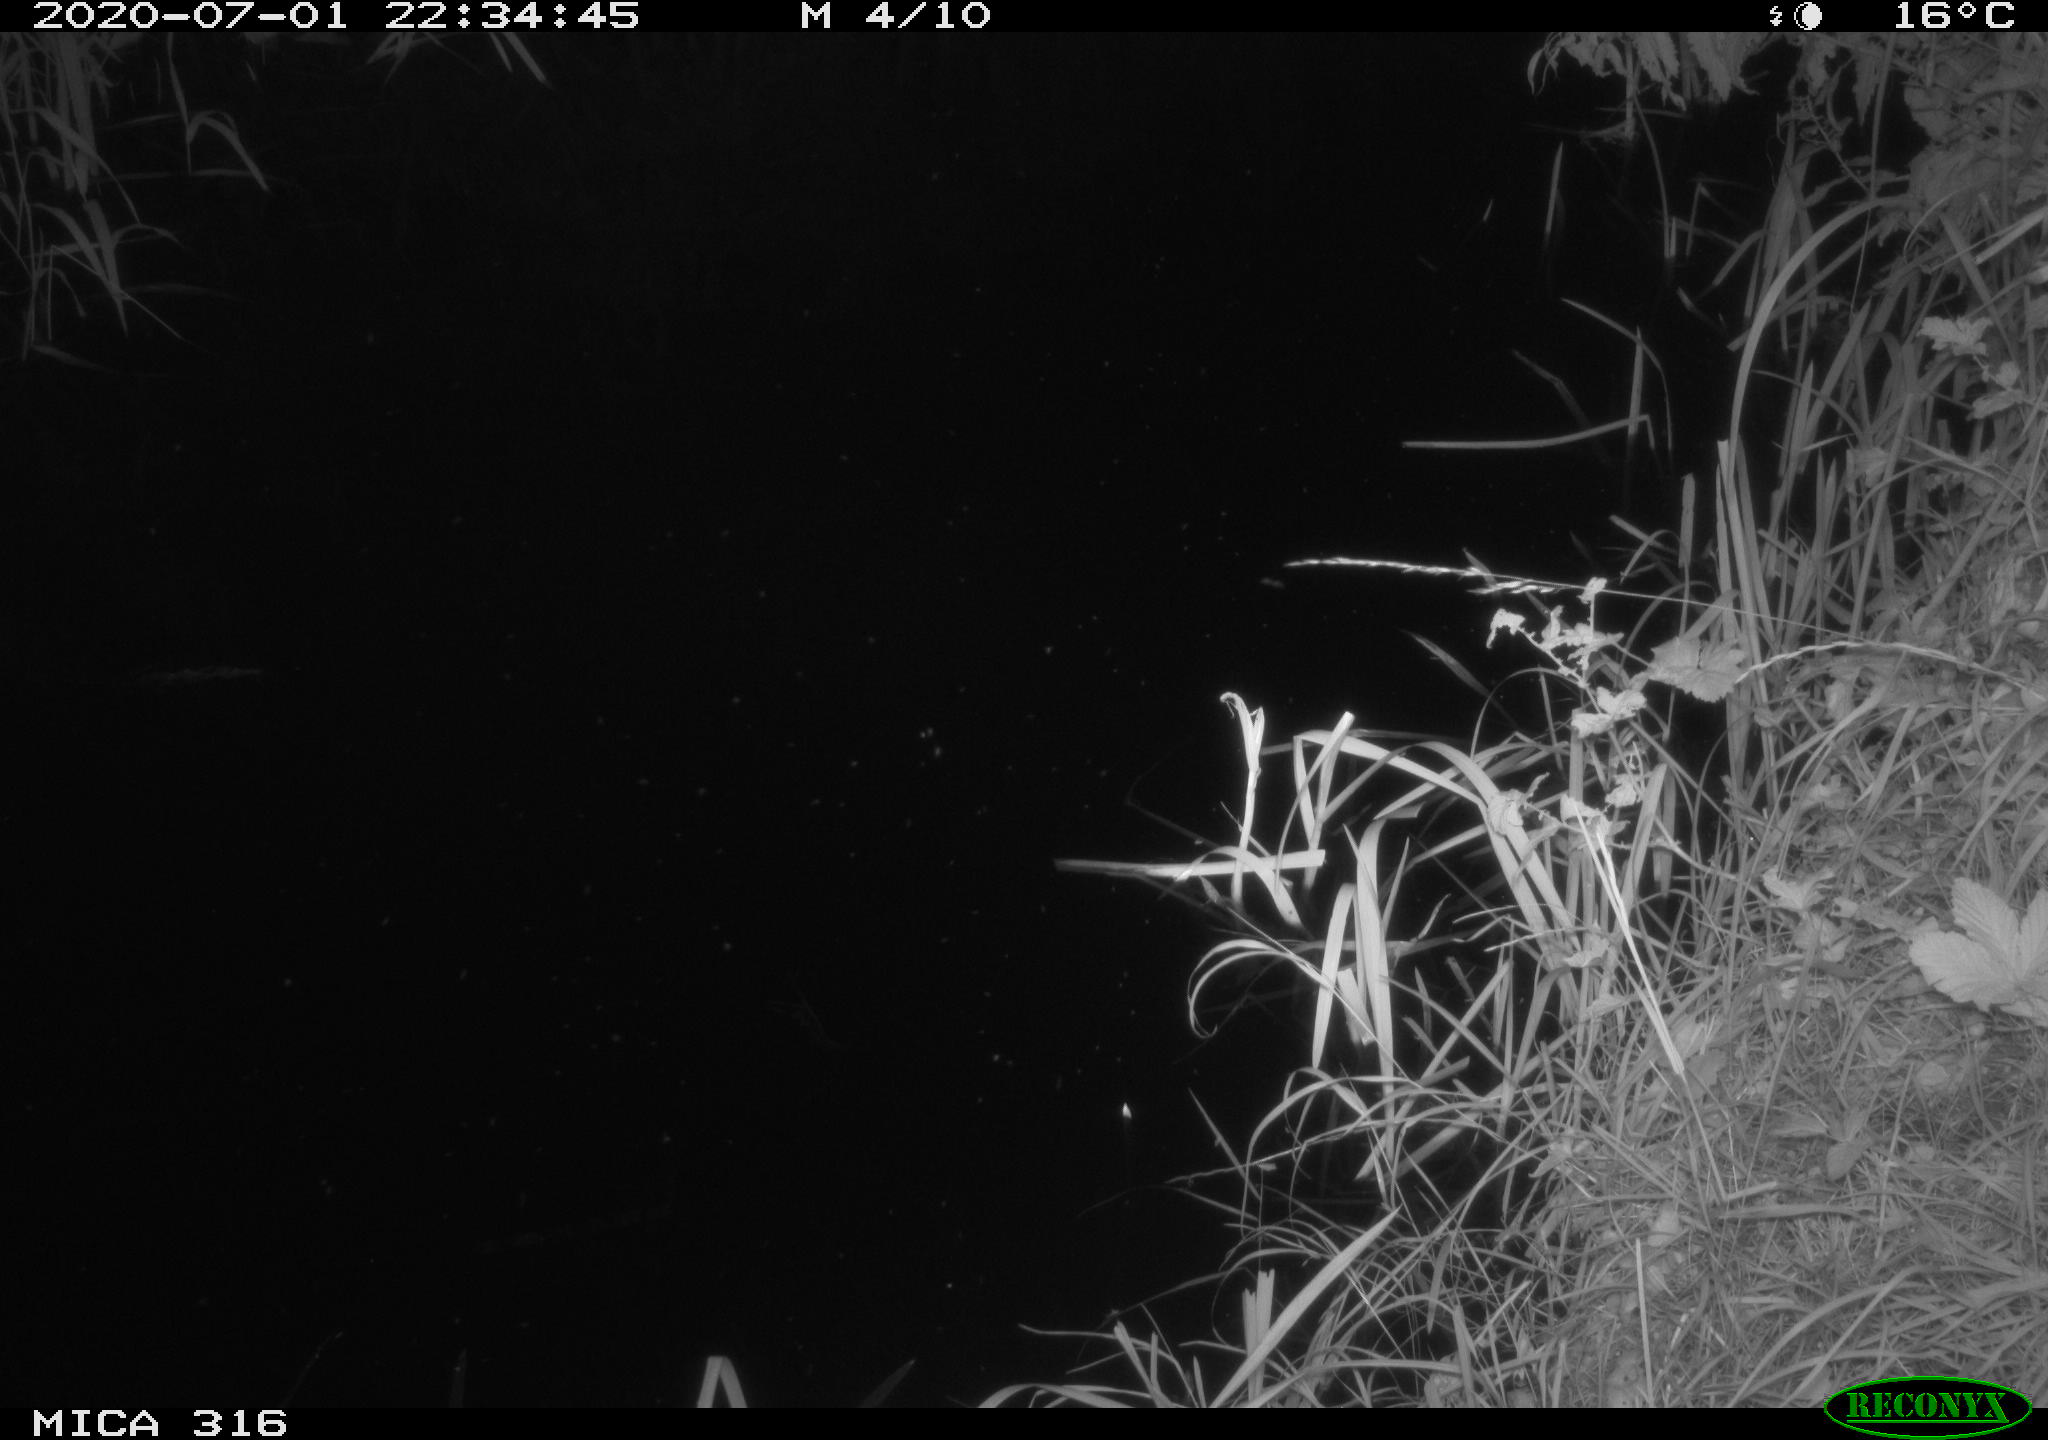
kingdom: Animalia
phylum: Chordata
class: Aves
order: Anseriformes
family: Anatidae
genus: Anas
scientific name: Anas platyrhynchos
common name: Mallard
